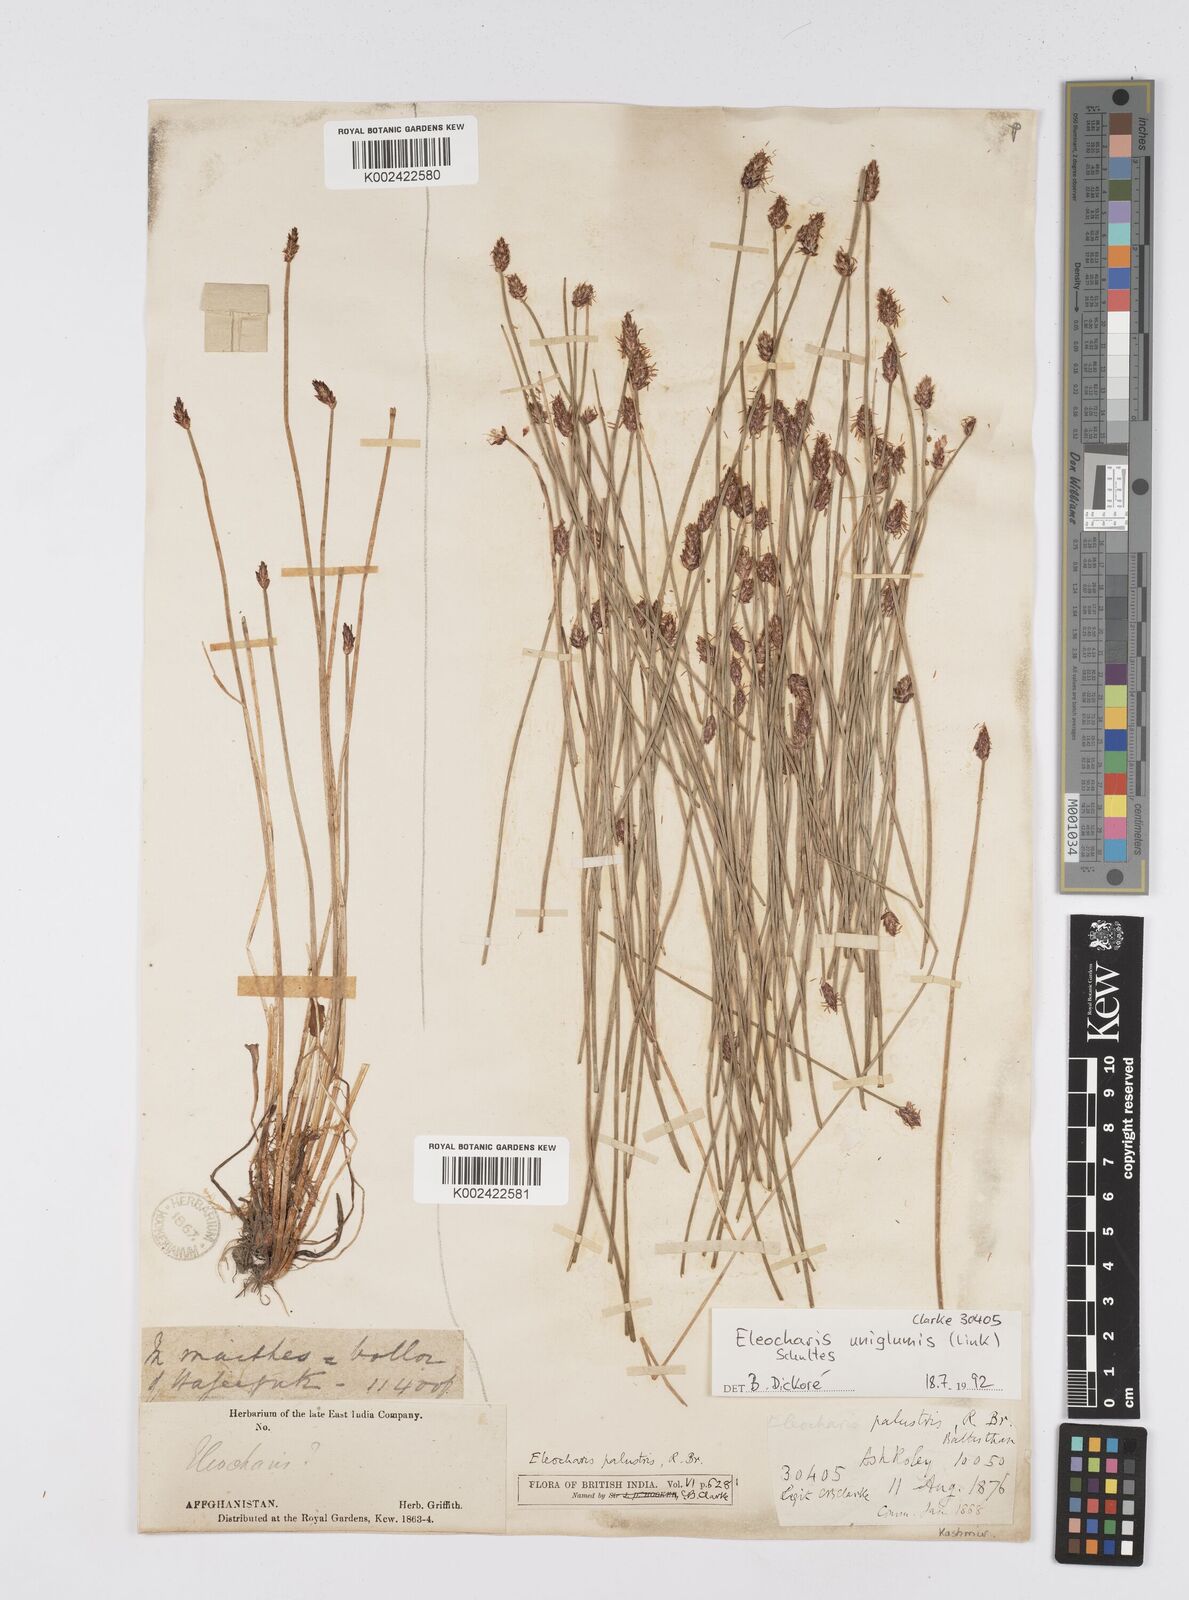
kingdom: Plantae
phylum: Tracheophyta
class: Liliopsida
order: Poales
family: Cyperaceae
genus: Eleocharis
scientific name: Eleocharis uniglumis
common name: Slender spike-rush
